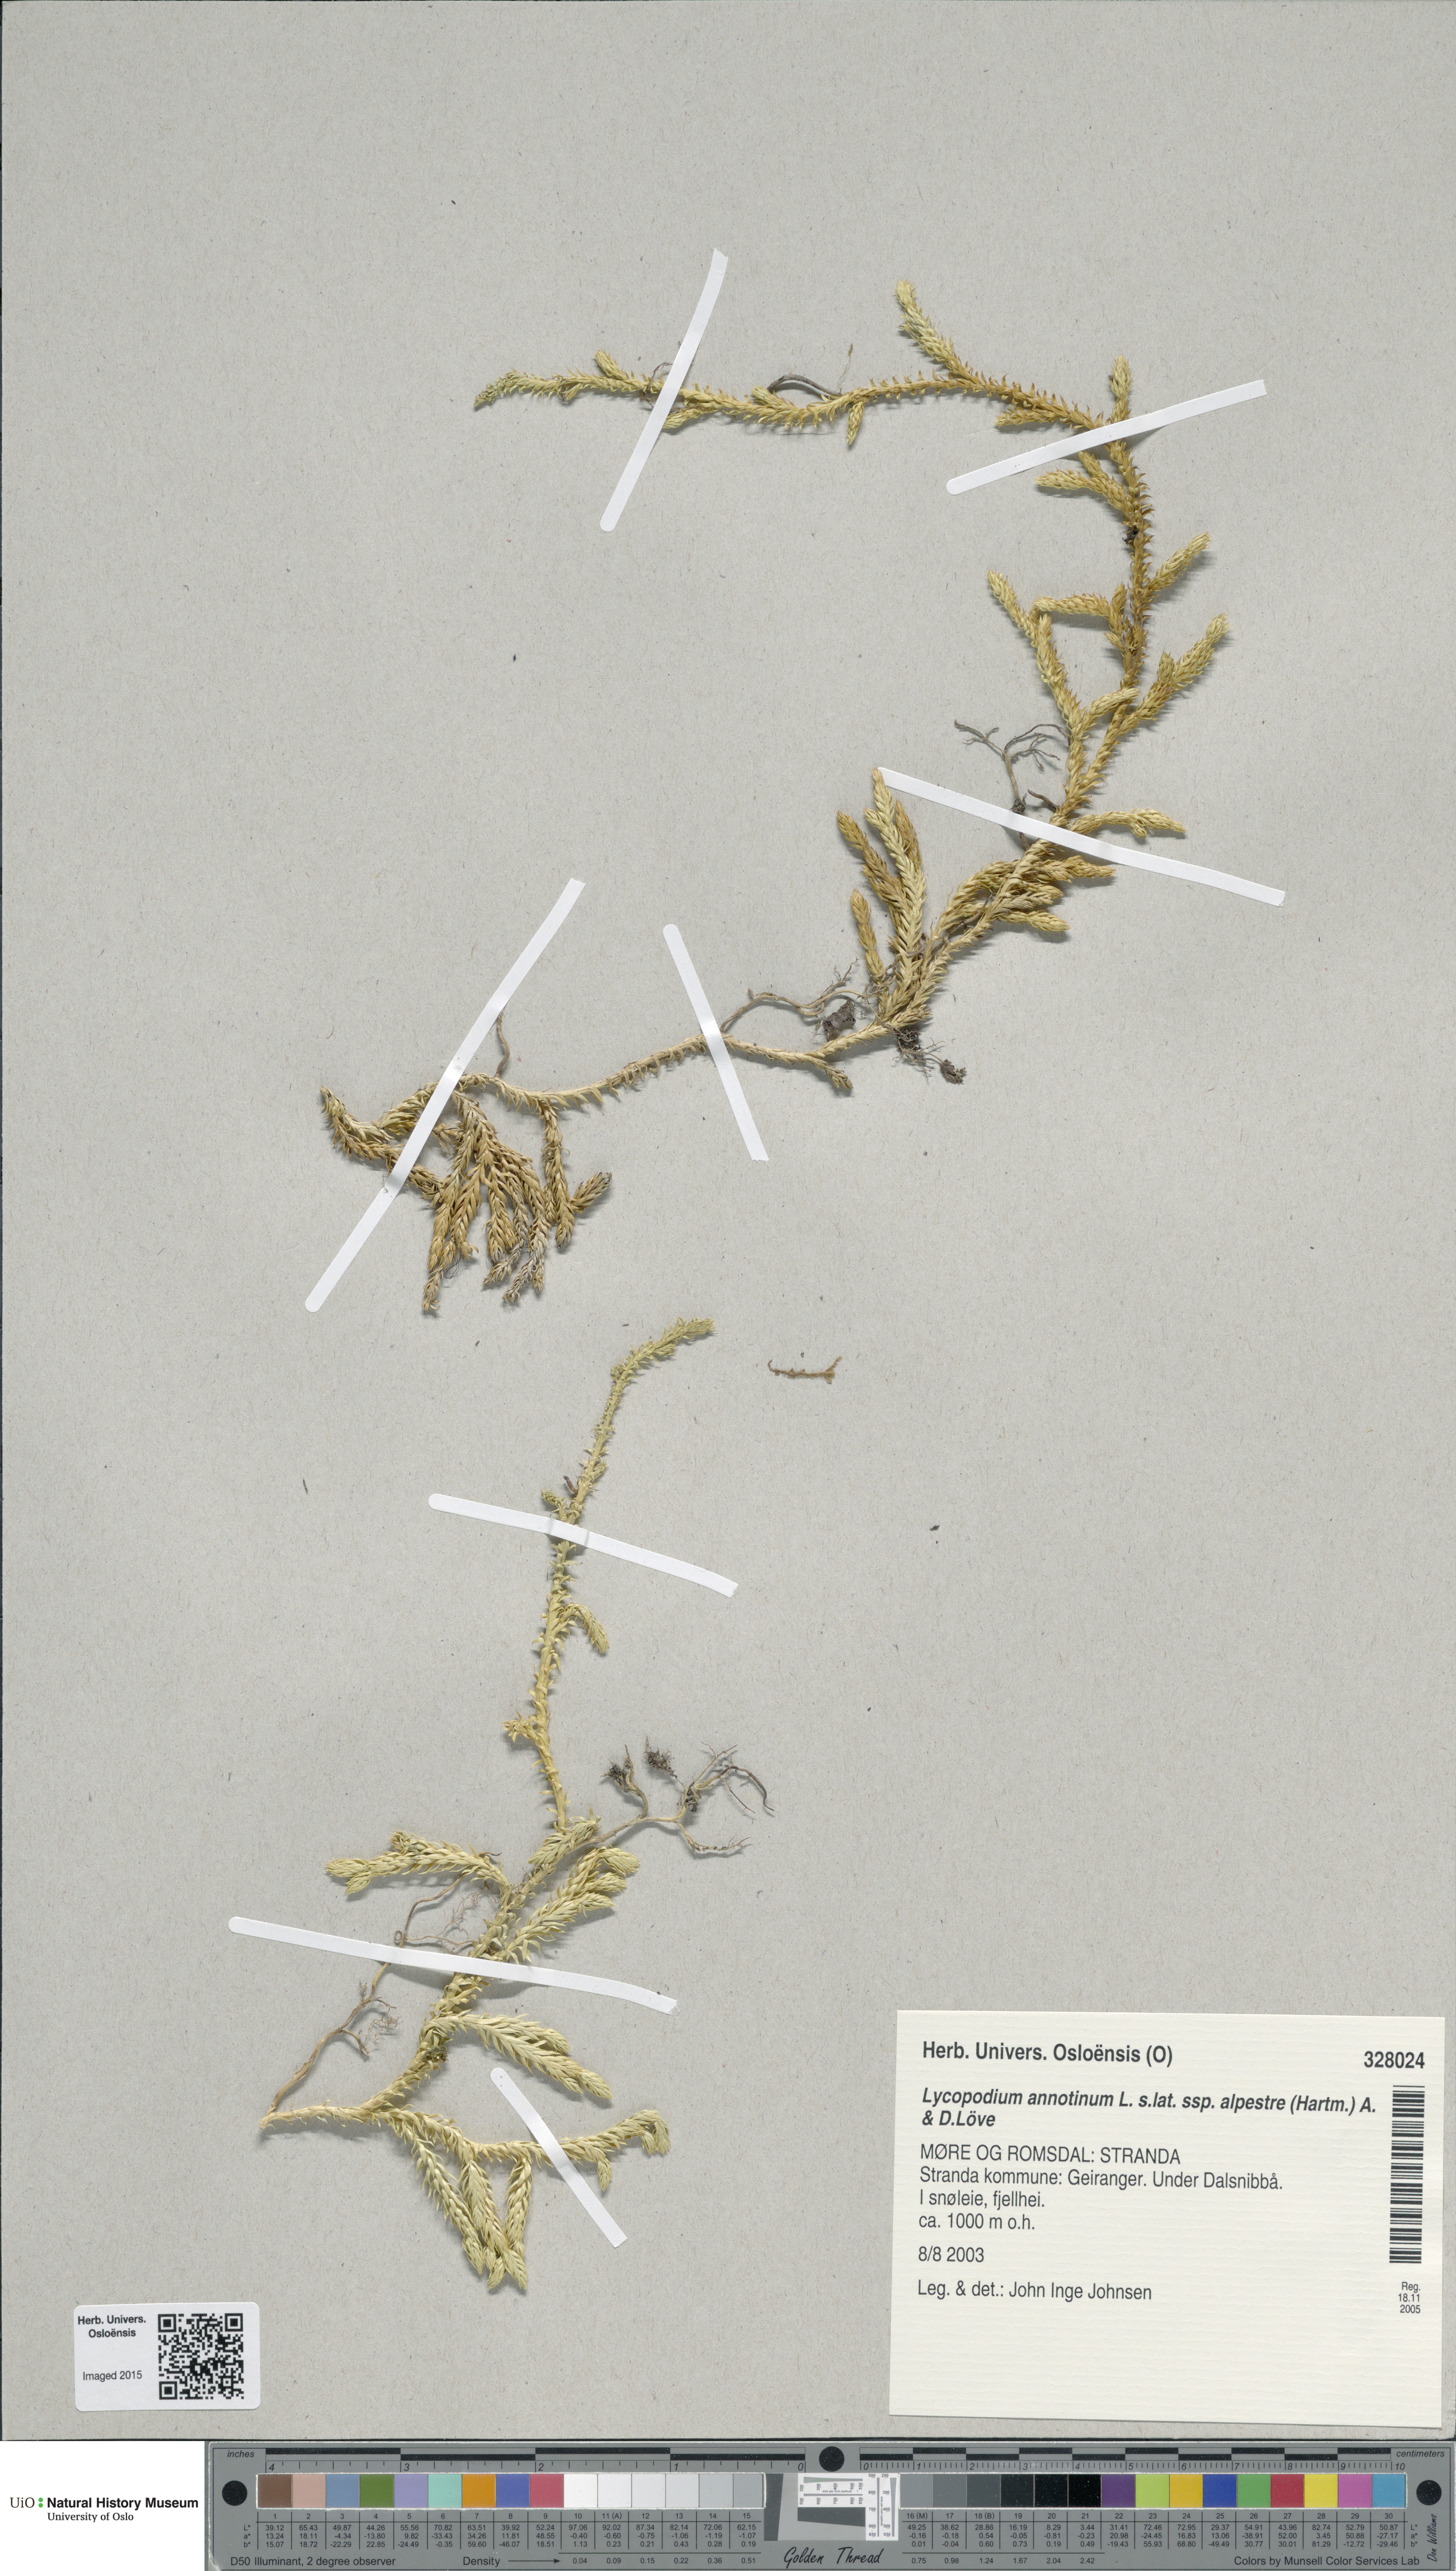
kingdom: Plantae
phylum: Tracheophyta
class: Lycopodiopsida
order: Lycopodiales
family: Lycopodiaceae
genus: Spinulum
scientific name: Spinulum annotinum
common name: Interrupted club-moss
